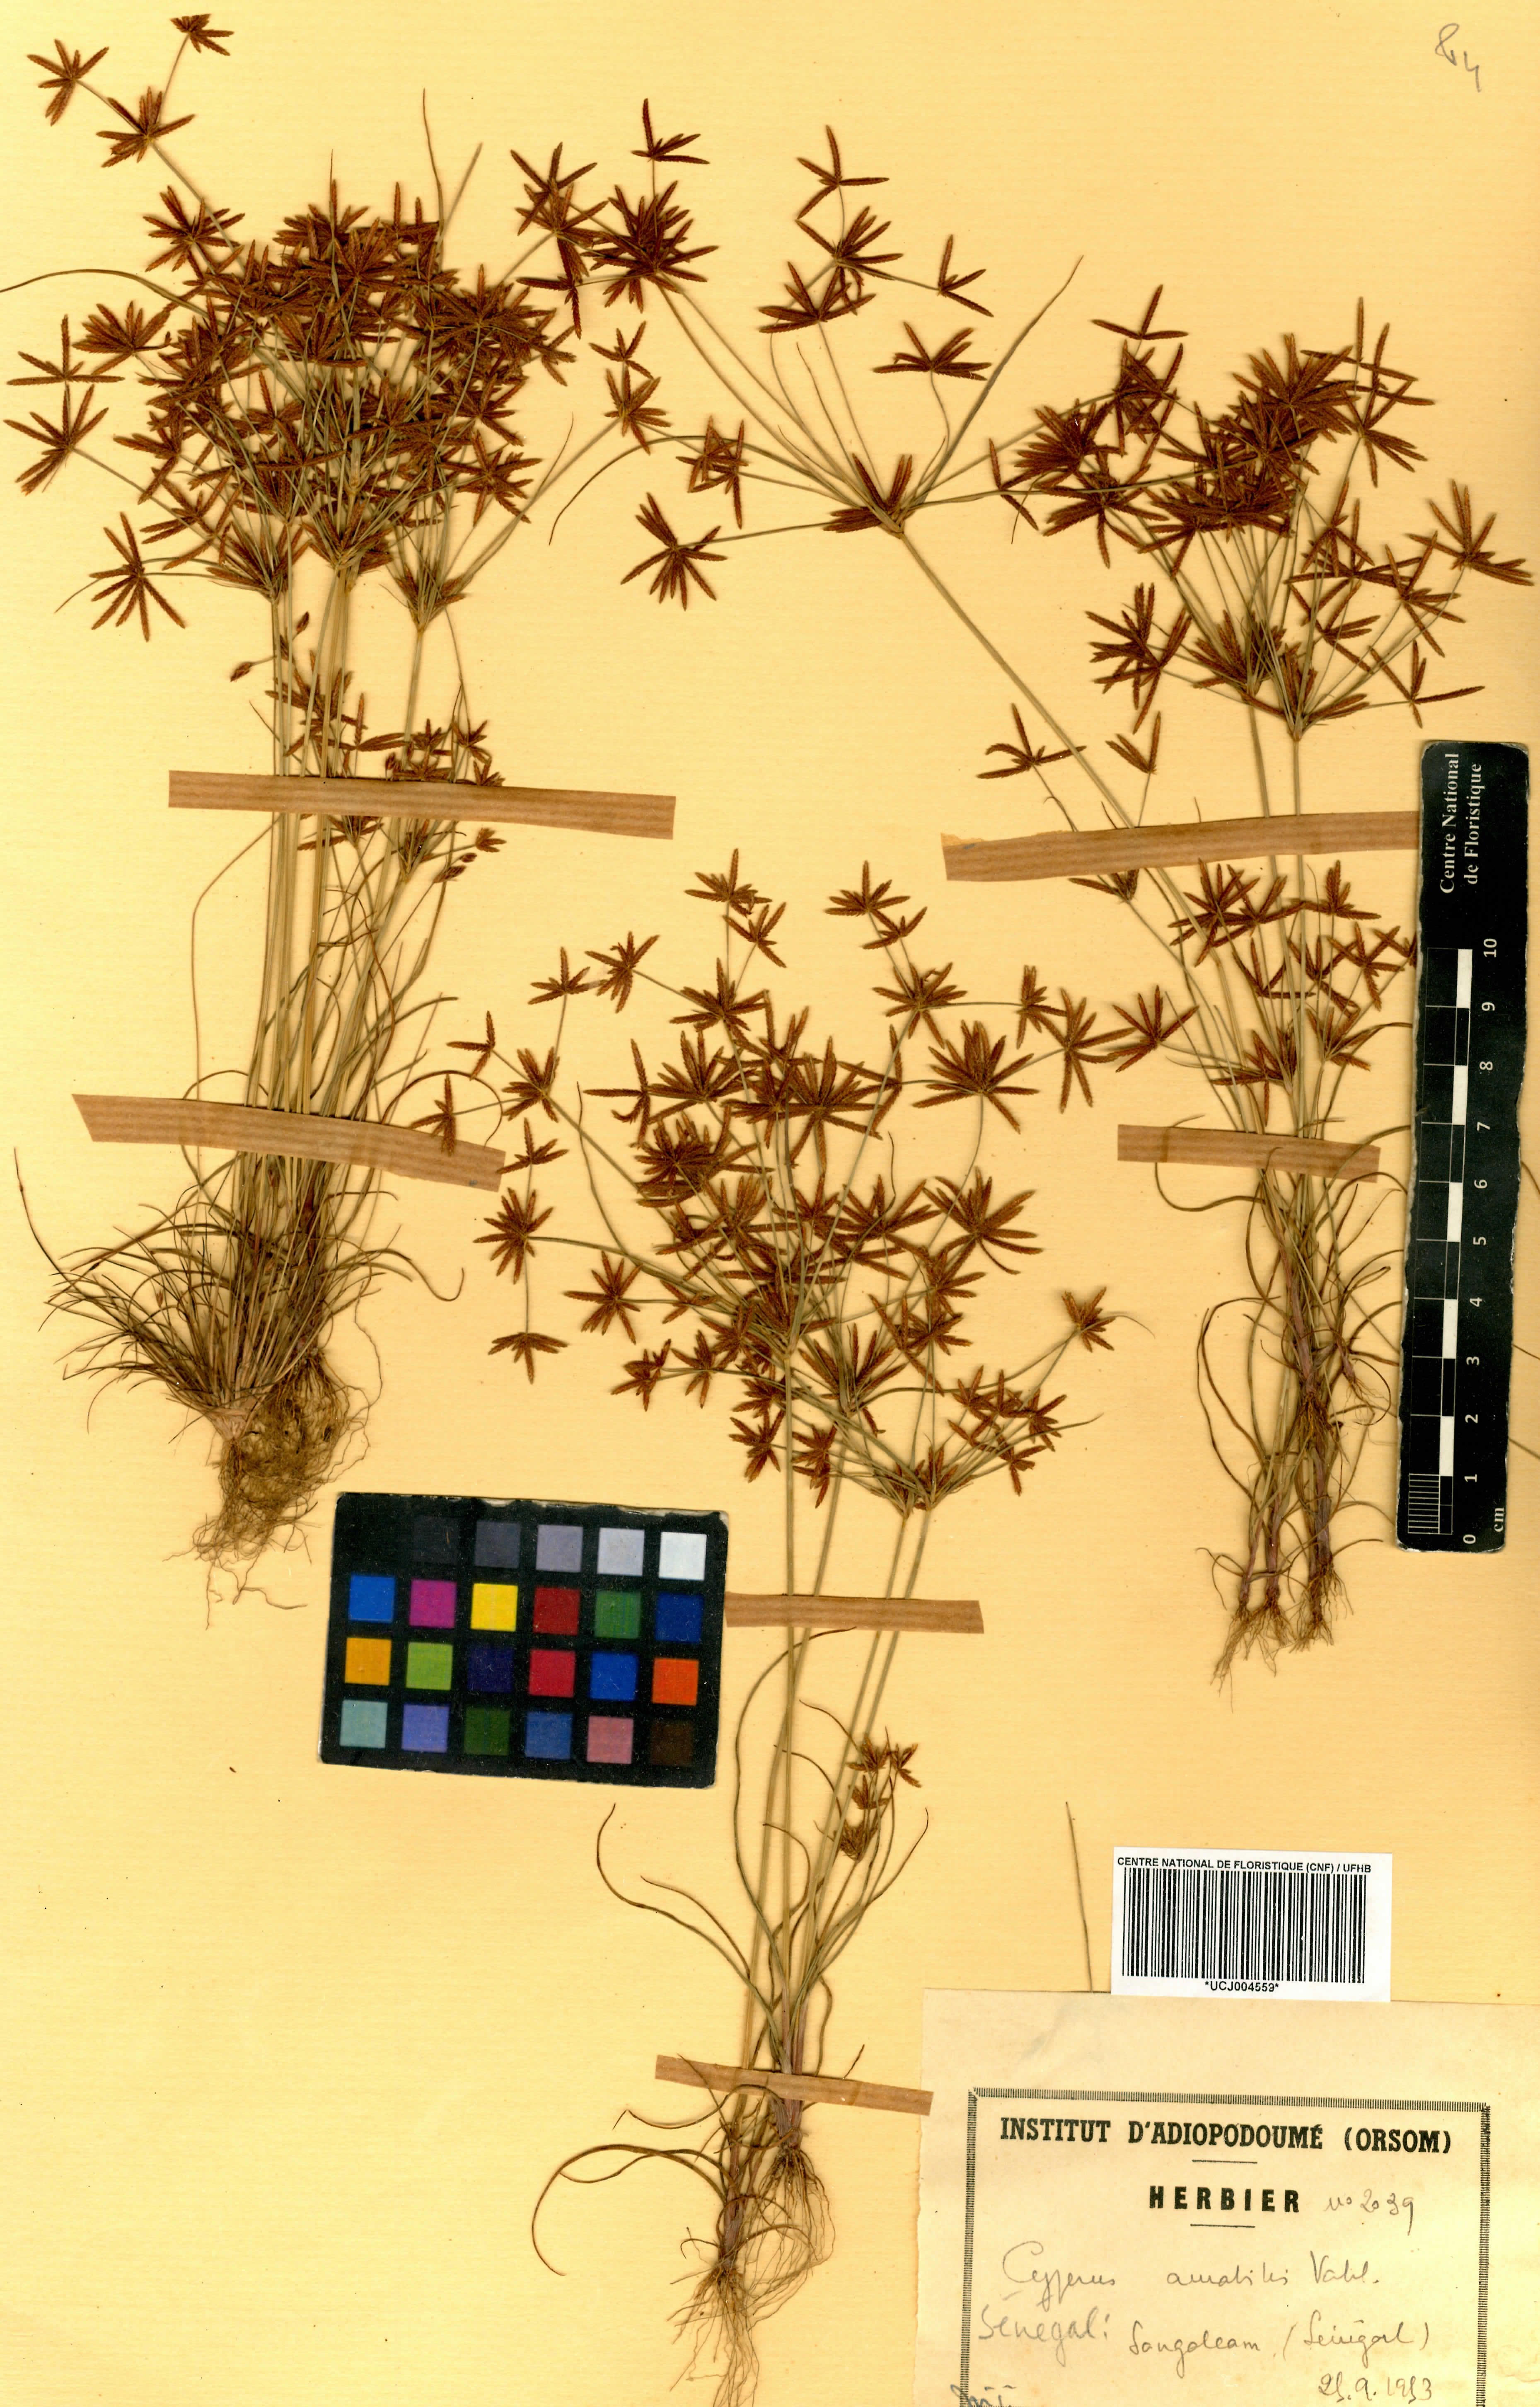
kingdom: Plantae
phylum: Tracheophyta
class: Liliopsida
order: Poales
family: Cyperaceae
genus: Cyperus
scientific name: Cyperus amabilis
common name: Foothill flat sedge
